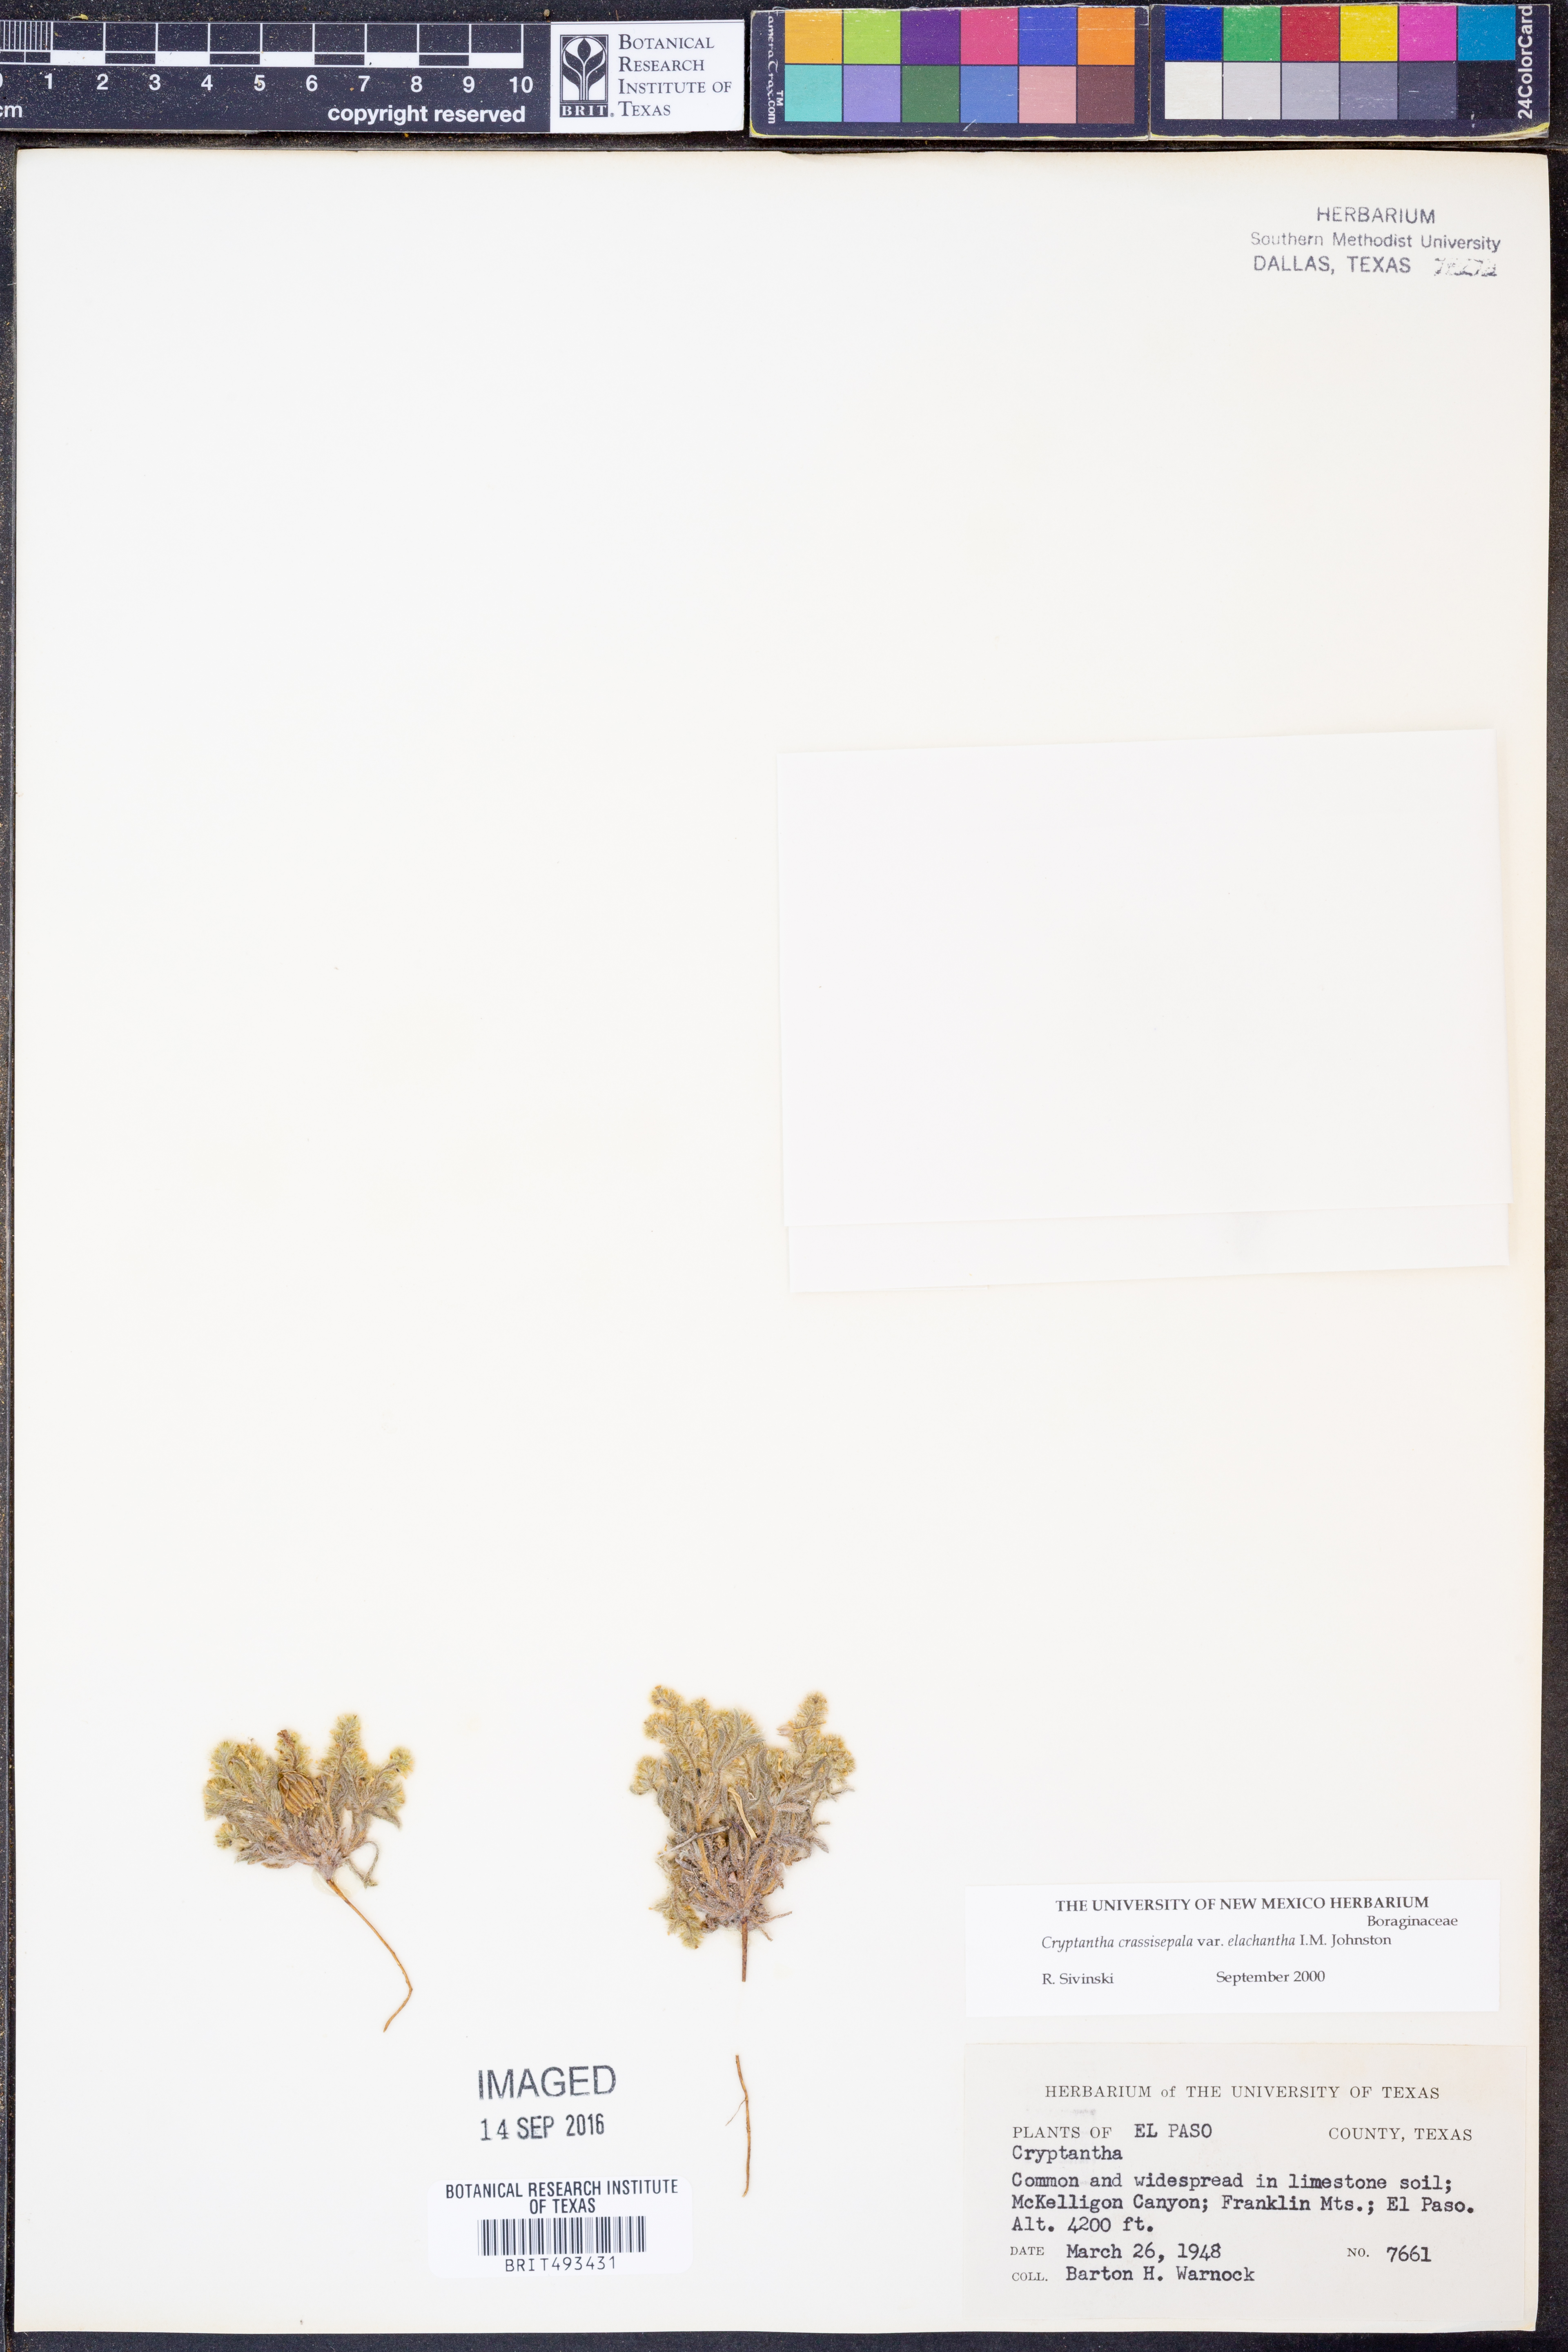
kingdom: Plantae
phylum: Tracheophyta
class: Magnoliopsida
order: Boraginales
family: Boraginaceae
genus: Cryptantha
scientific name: Cryptantha crassisepala
